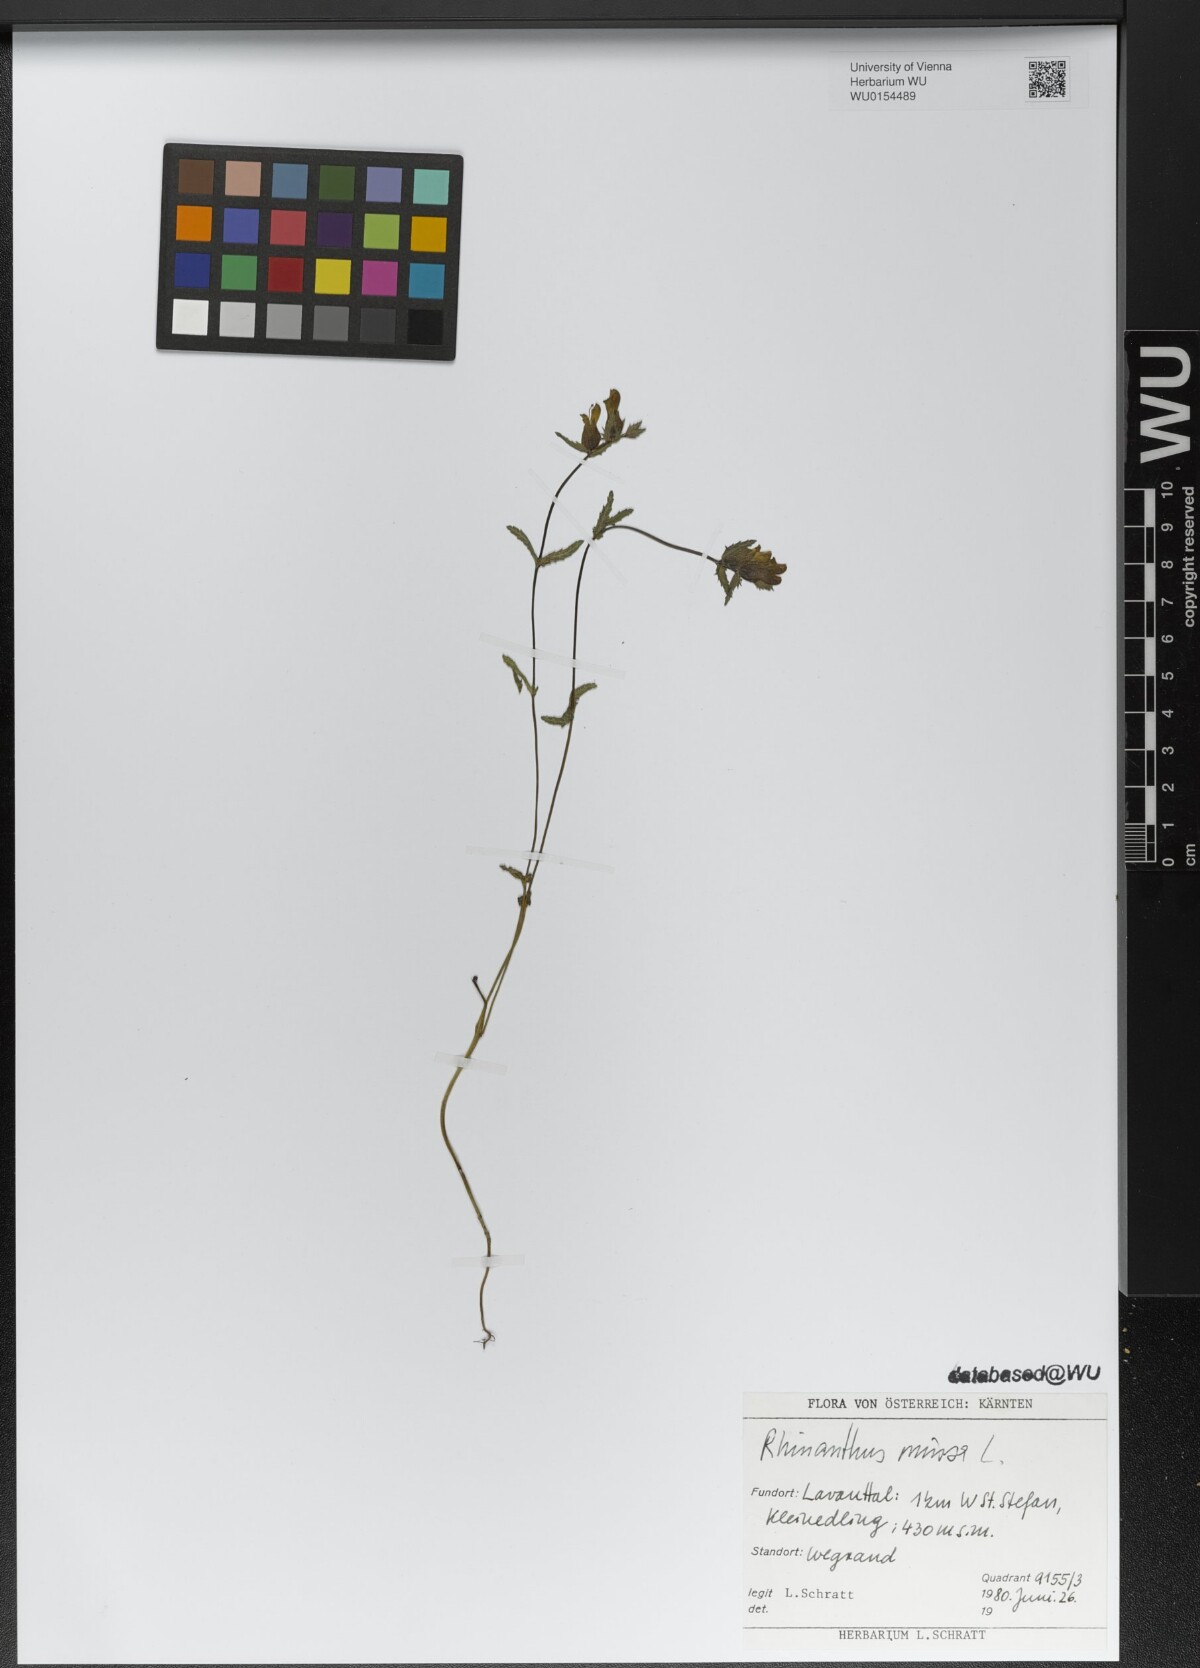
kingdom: Plantae
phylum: Tracheophyta
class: Magnoliopsida
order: Lamiales
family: Orobanchaceae
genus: Rhinanthus
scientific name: Rhinanthus minor
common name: Yellow-rattle
